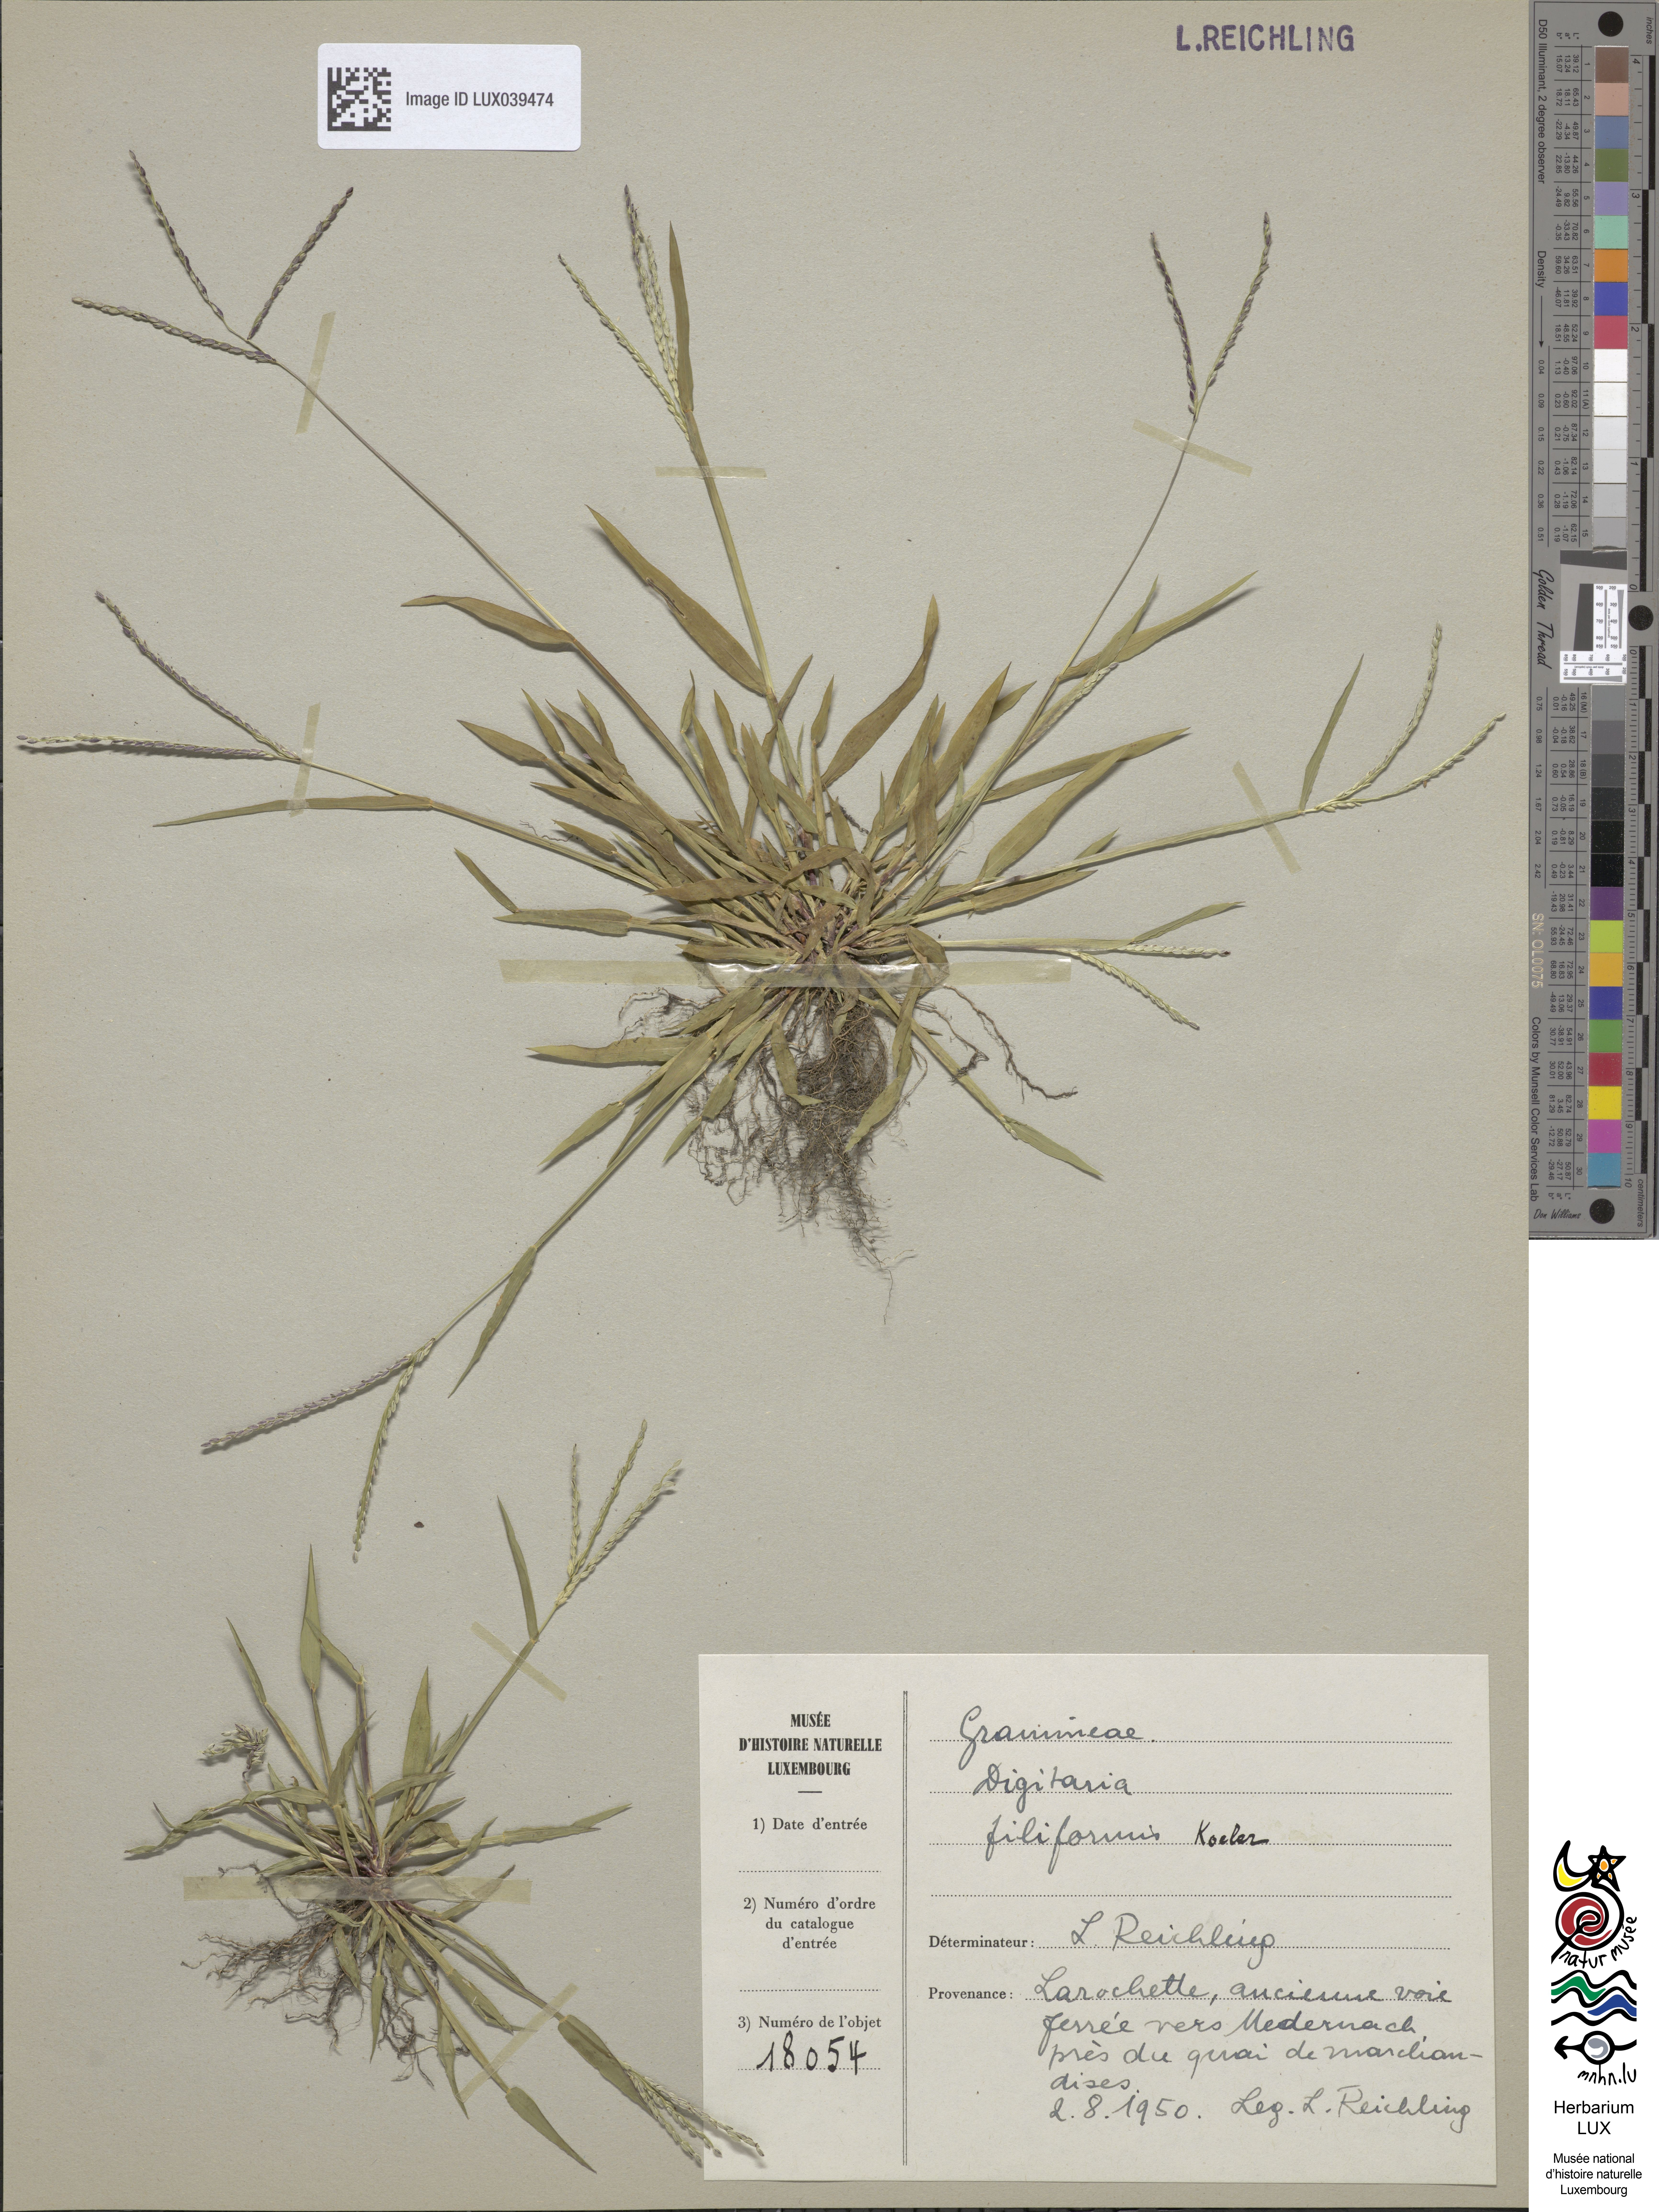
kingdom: Plantae
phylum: Tracheophyta
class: Liliopsida
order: Poales
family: Poaceae
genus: Digitaria
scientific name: Digitaria ischaemum
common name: Smooth crabgrass
